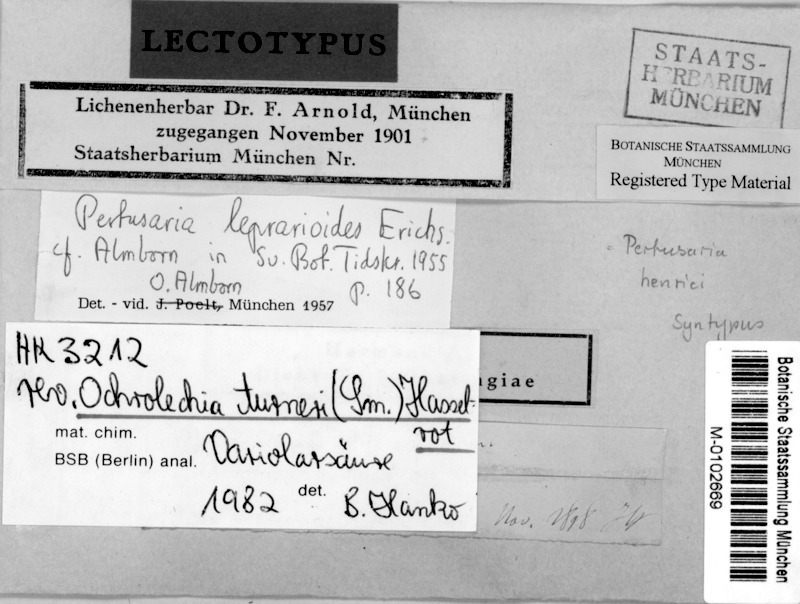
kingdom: Fungi
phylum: Ascomycota
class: Lecanoromycetes
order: Pertusariales
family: Ochrolechiaceae
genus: Ochrolechia
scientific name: Ochrolechia turneri
